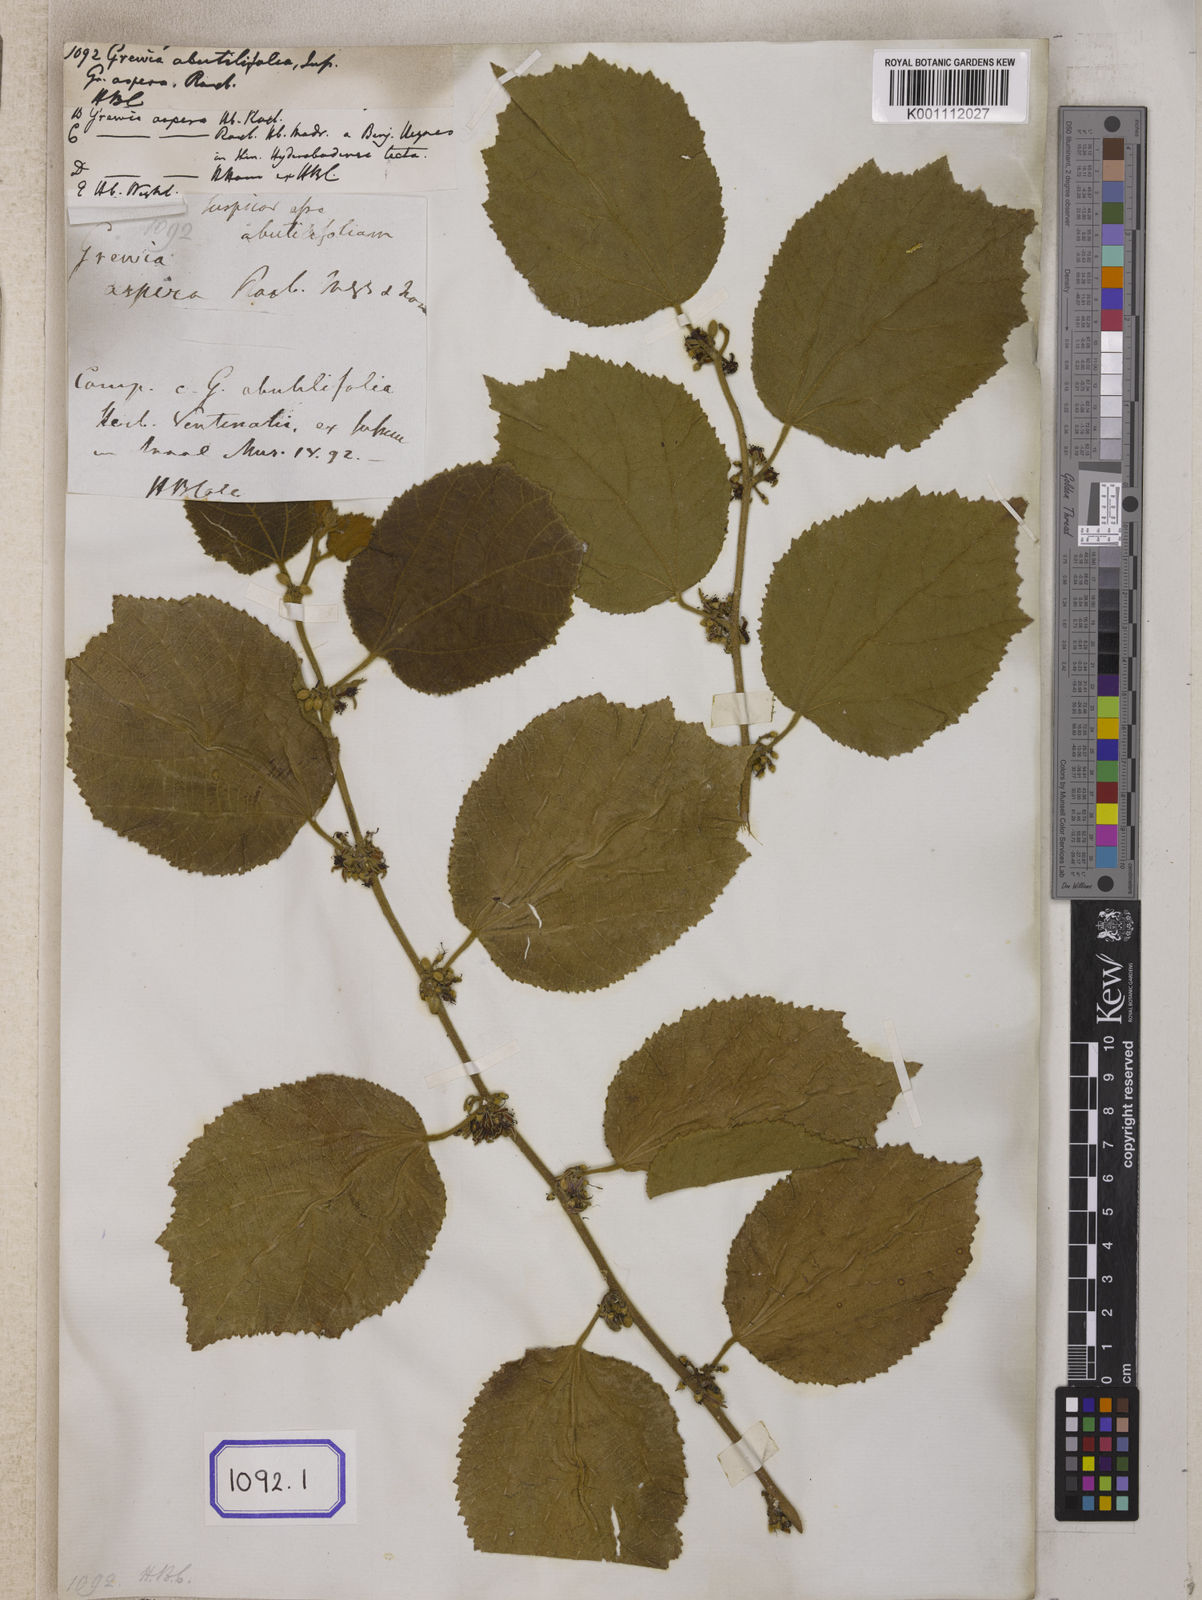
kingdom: Plantae
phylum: Tracheophyta
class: Magnoliopsida
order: Malvales
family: Malvaceae
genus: Grewia
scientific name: Grewia abutilifolia
